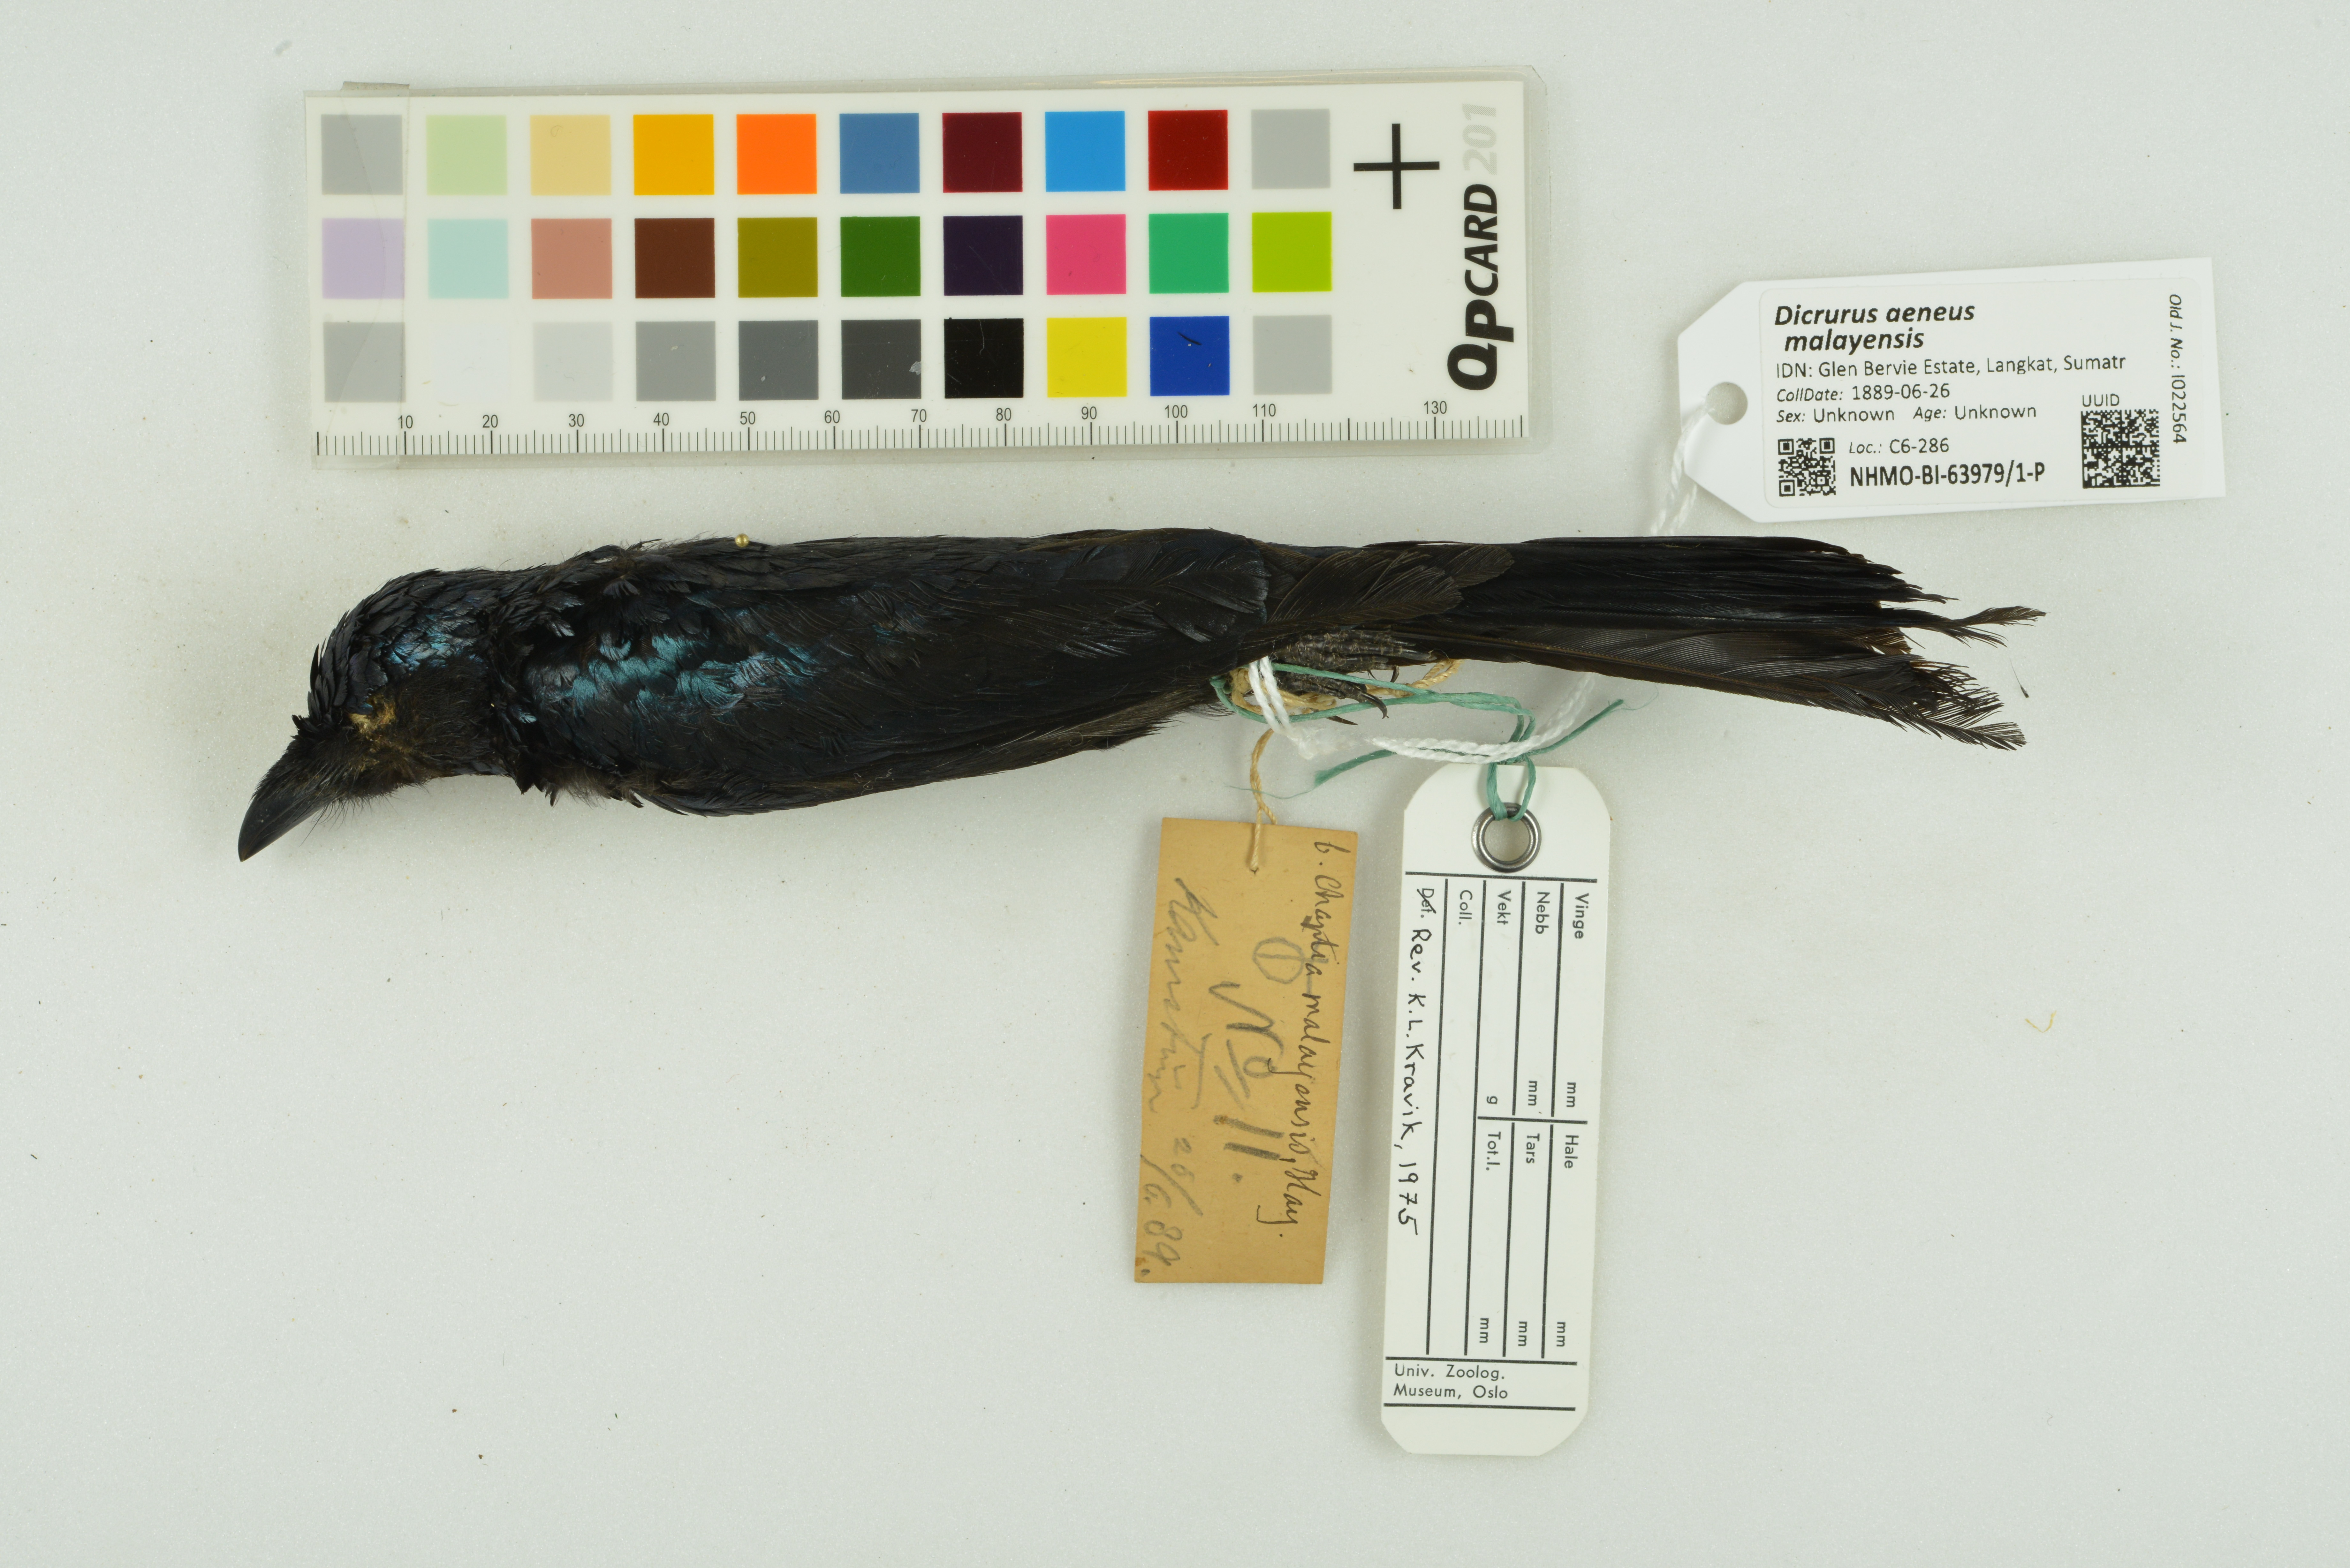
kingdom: Animalia
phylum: Chordata
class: Aves
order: Passeriformes
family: Dicruridae
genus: Dicrurus
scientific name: Dicrurus aeneus
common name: Bronzed drongo
